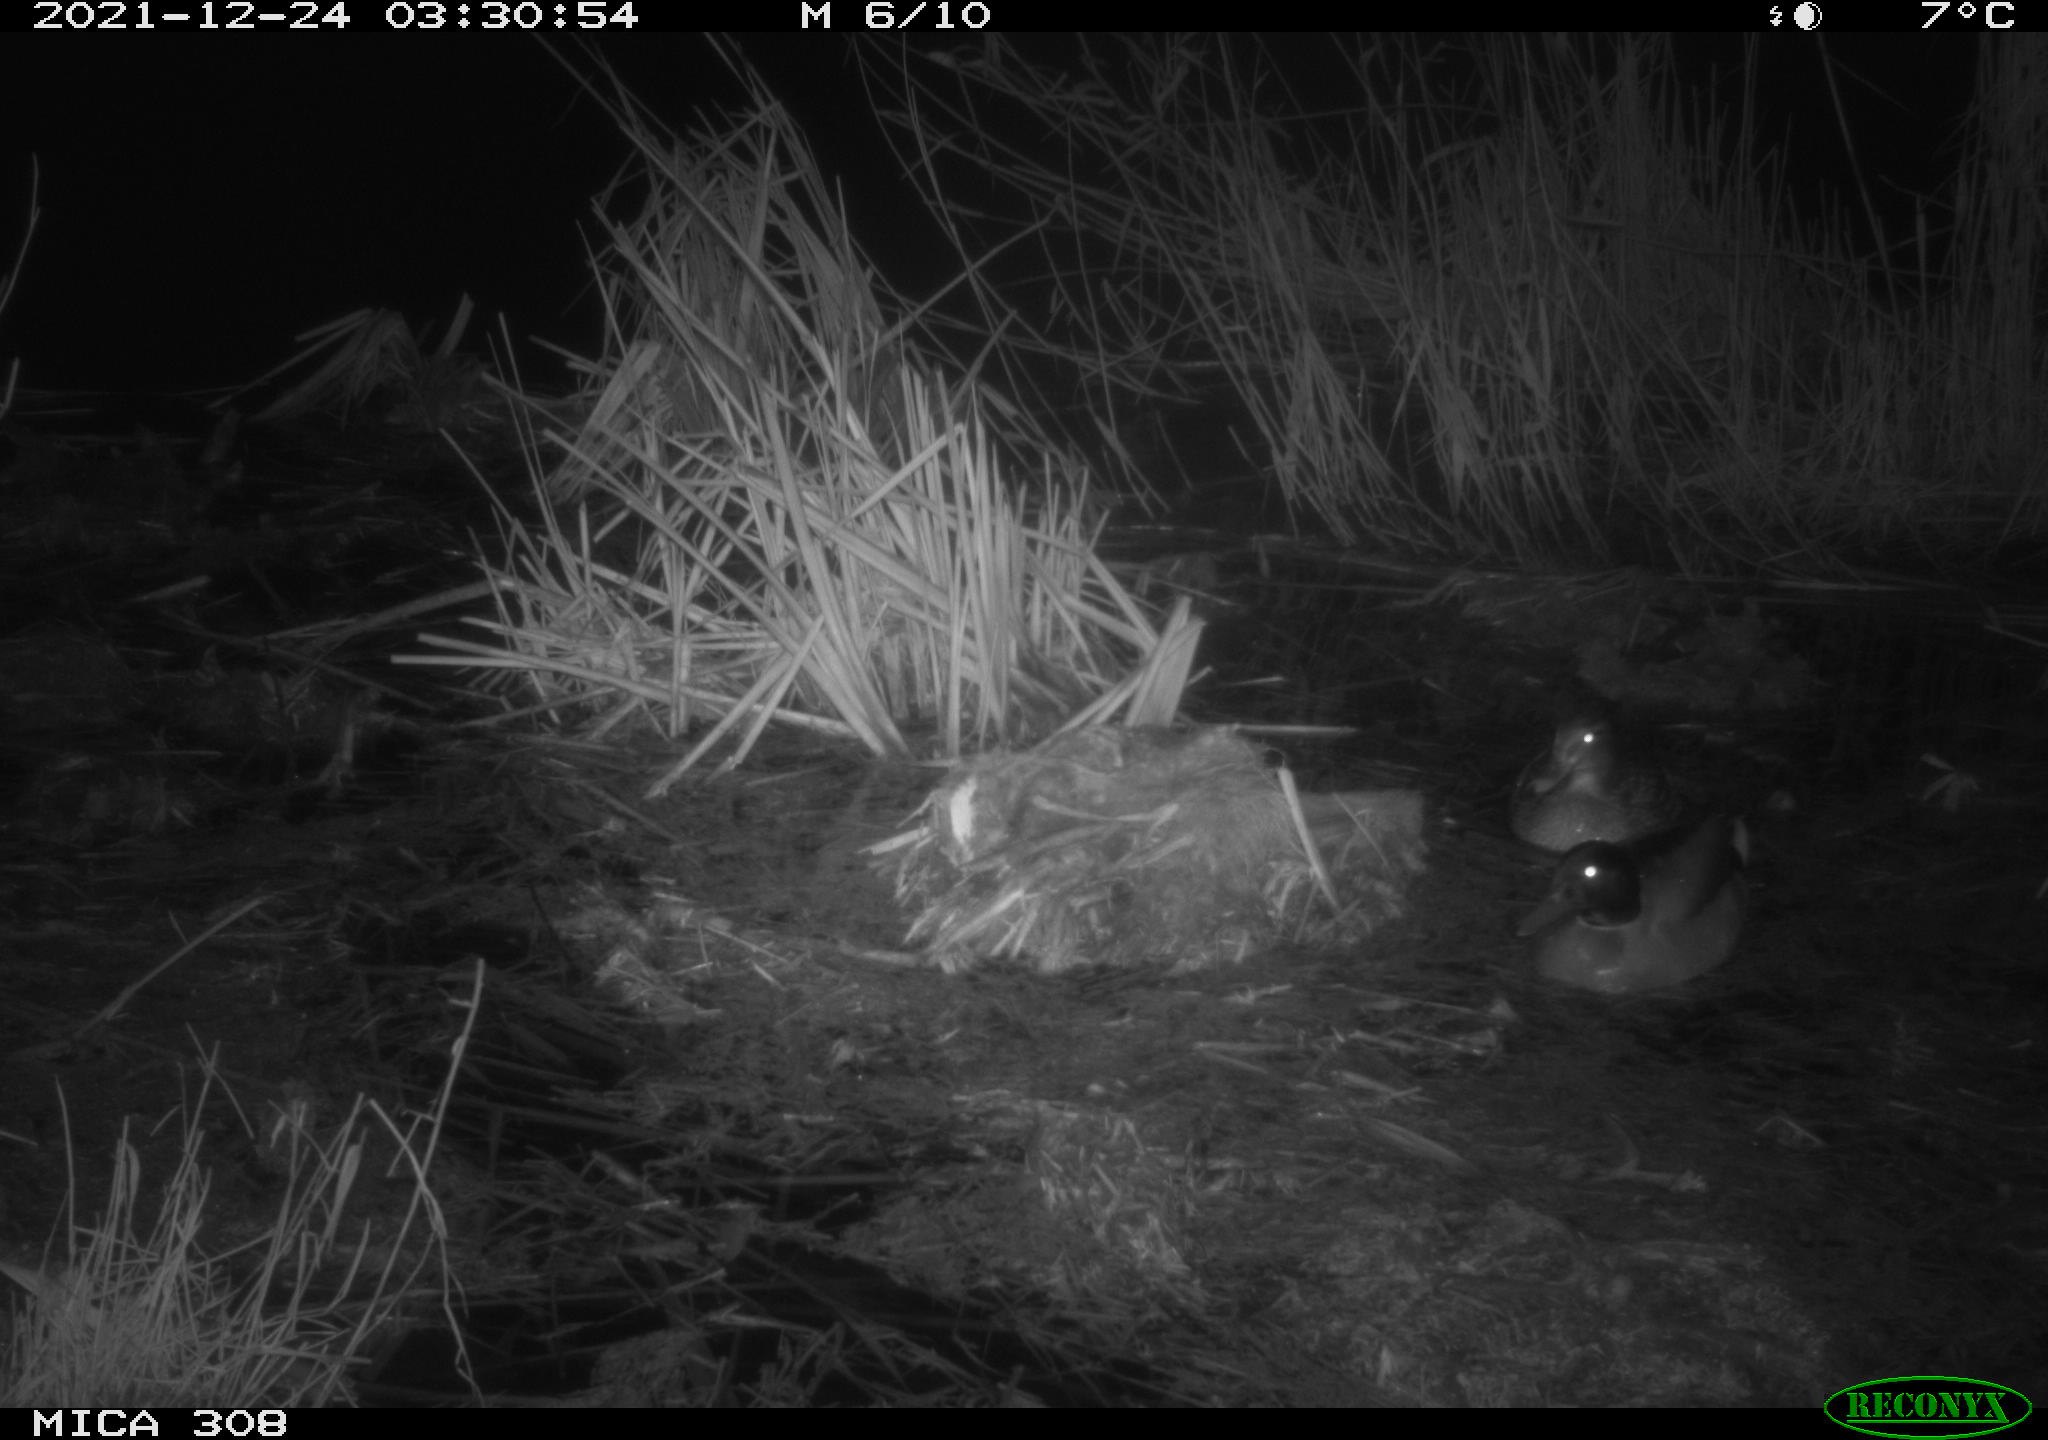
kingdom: Animalia
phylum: Chordata
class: Aves
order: Anseriformes
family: Anatidae
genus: Anas
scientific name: Anas platyrhynchos
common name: Mallard
